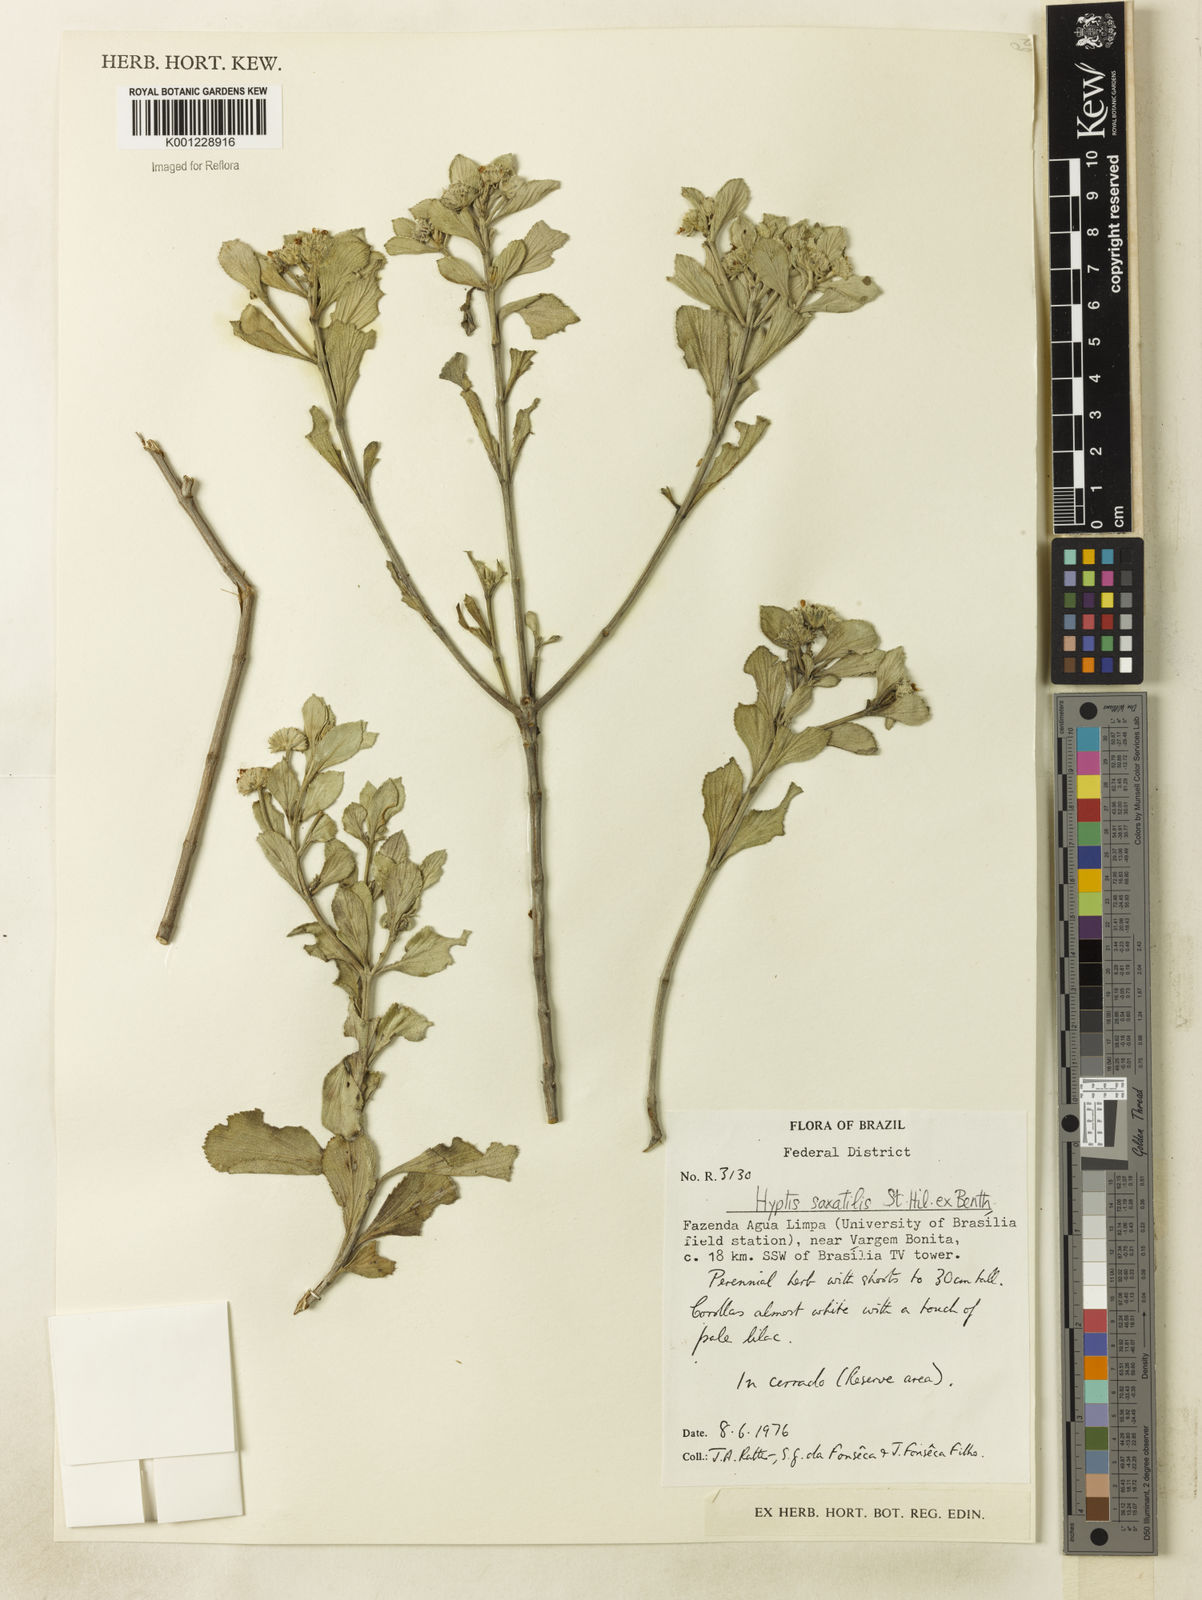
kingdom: Plantae
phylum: Tracheophyta
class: Magnoliopsida
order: Lamiales
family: Lamiaceae
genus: Hyptis
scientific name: Hyptis saxatilis
